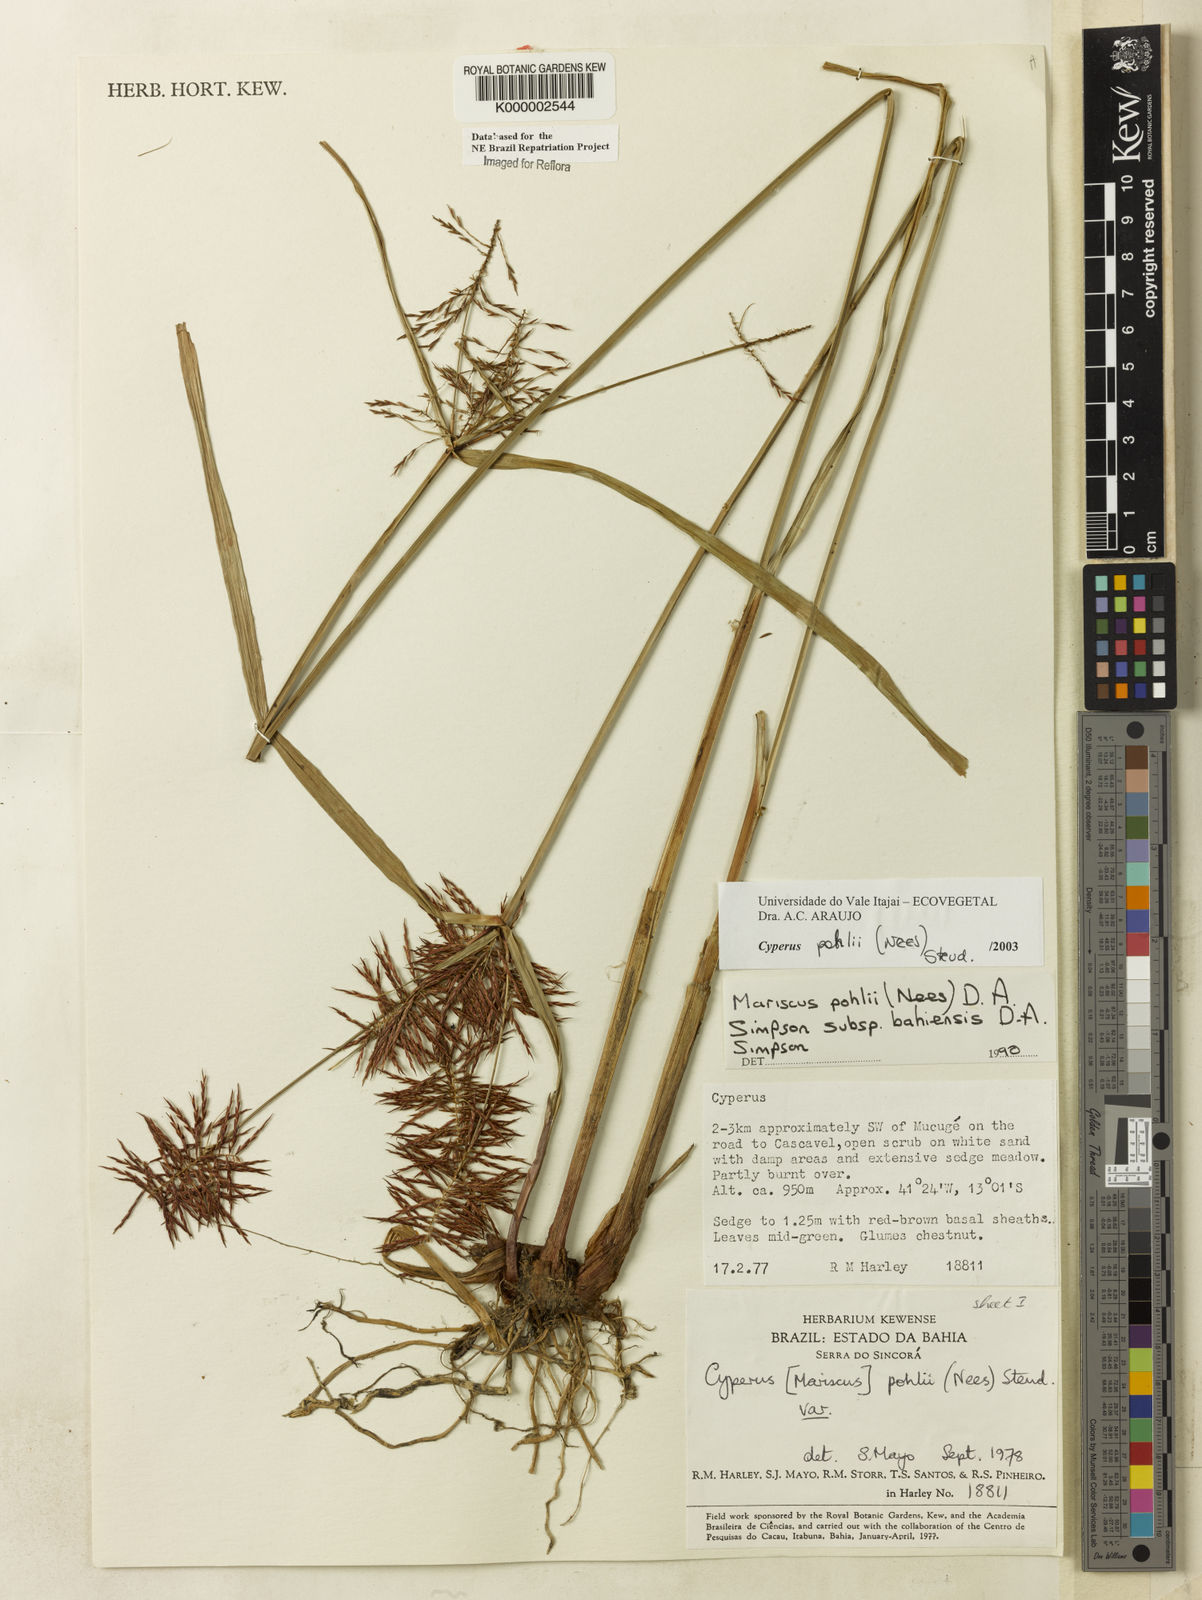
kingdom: Plantae
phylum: Tracheophyta
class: Liliopsida
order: Poales
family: Cyperaceae
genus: Cyperus
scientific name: Cyperus pohlii
